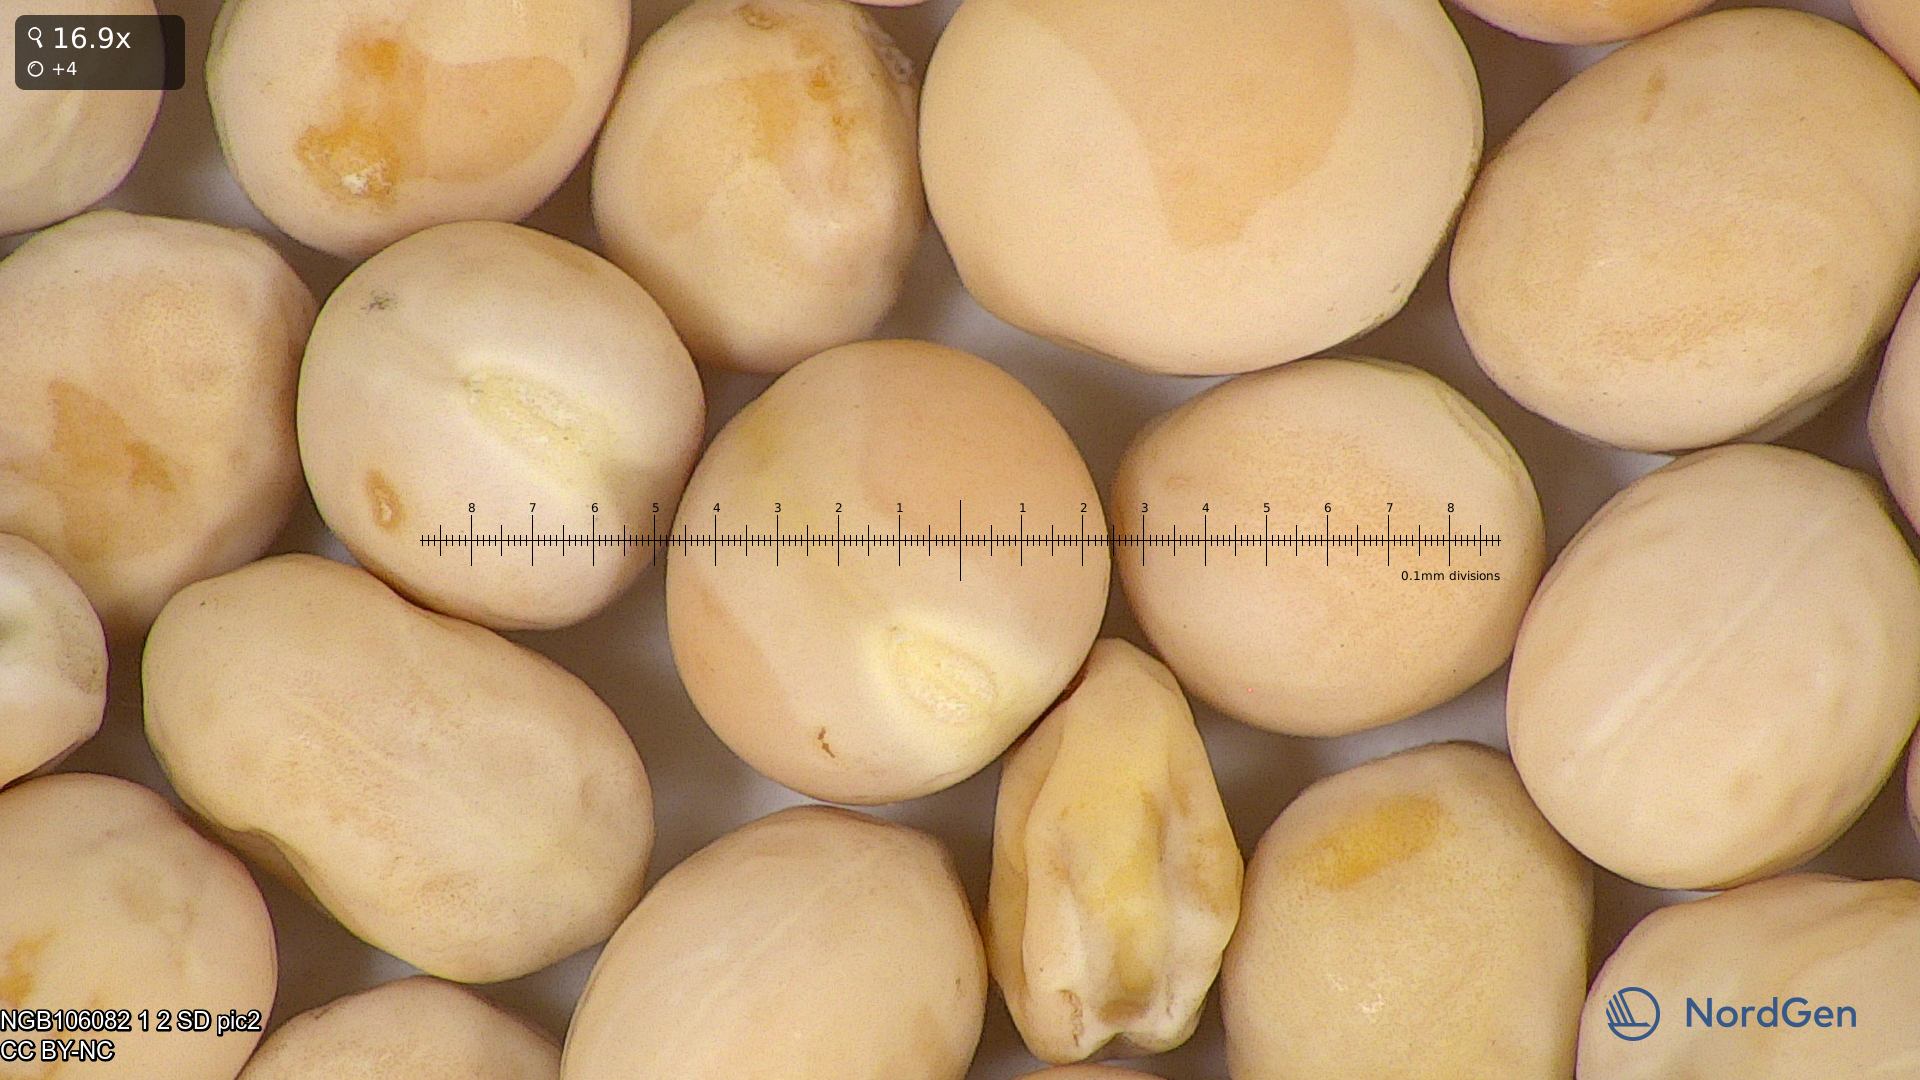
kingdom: Plantae
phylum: Tracheophyta
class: Magnoliopsida
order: Fabales
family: Fabaceae
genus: Lathyrus
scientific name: Lathyrus oleraceus
